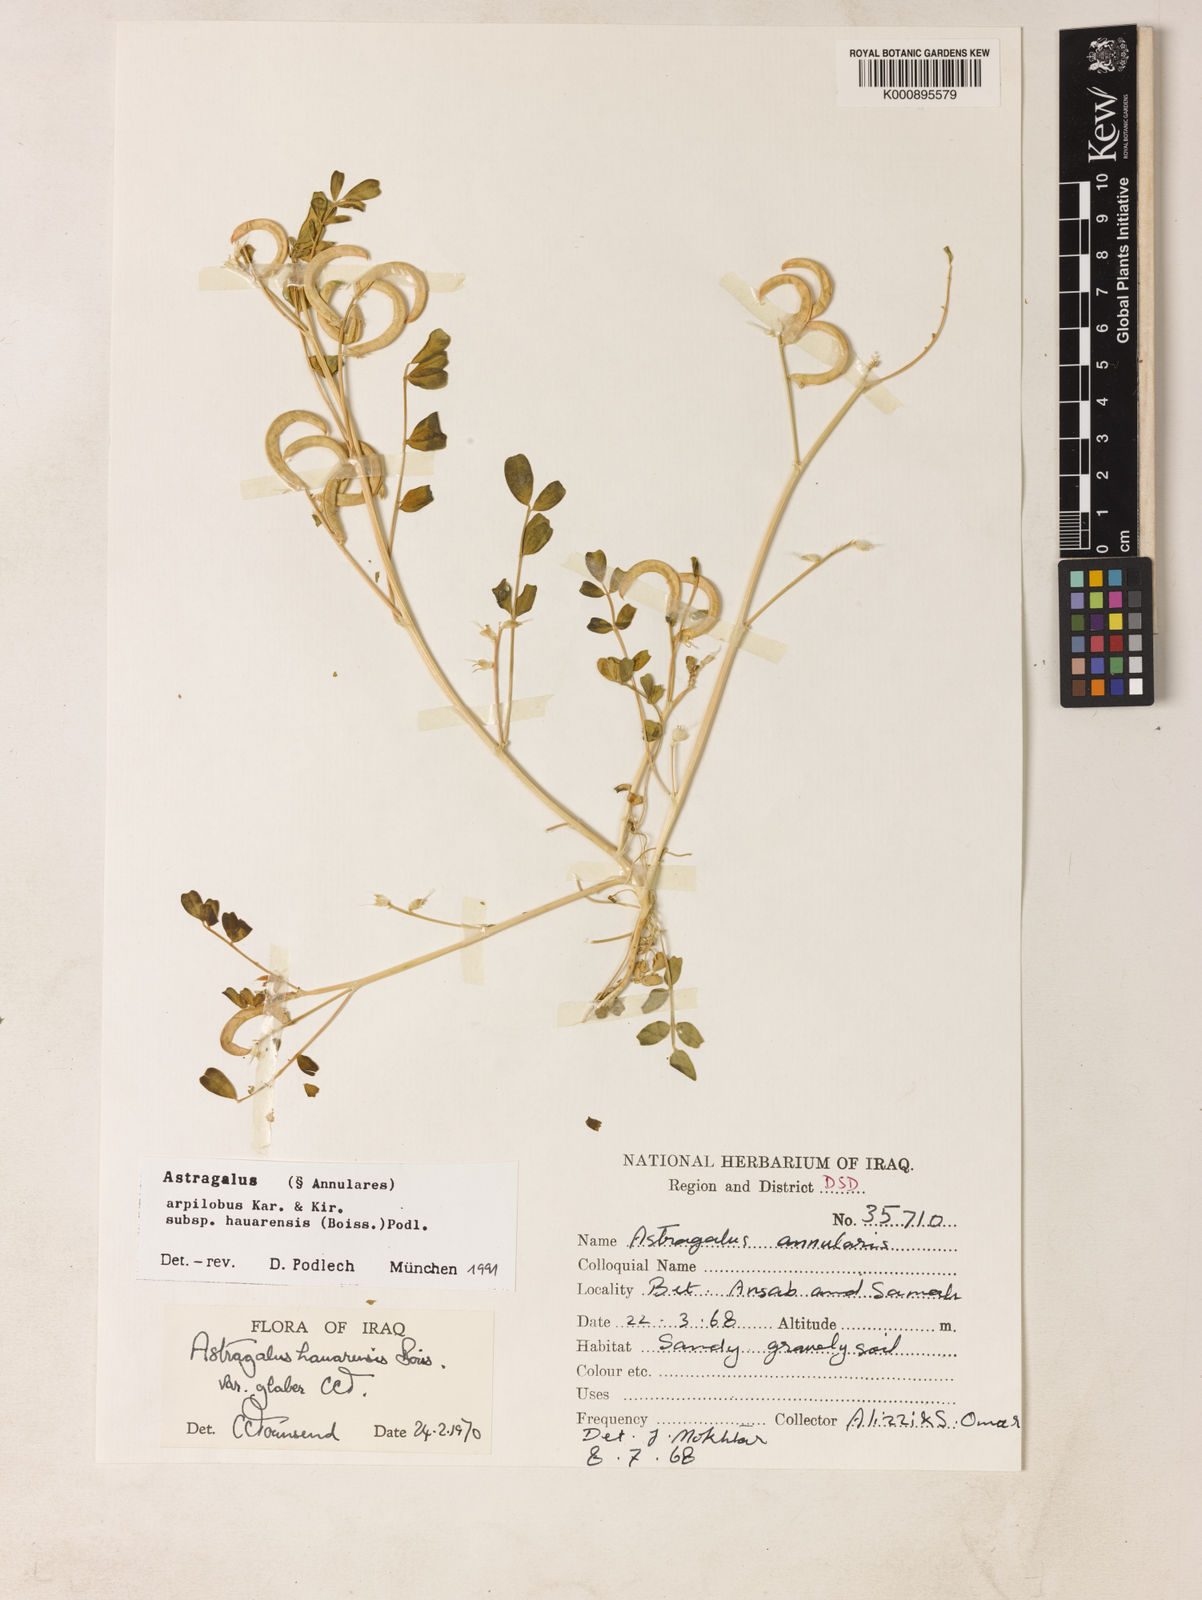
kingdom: Plantae
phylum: Tracheophyta
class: Magnoliopsida
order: Fabales
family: Fabaceae
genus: Astragalus
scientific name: Astragalus annularis
